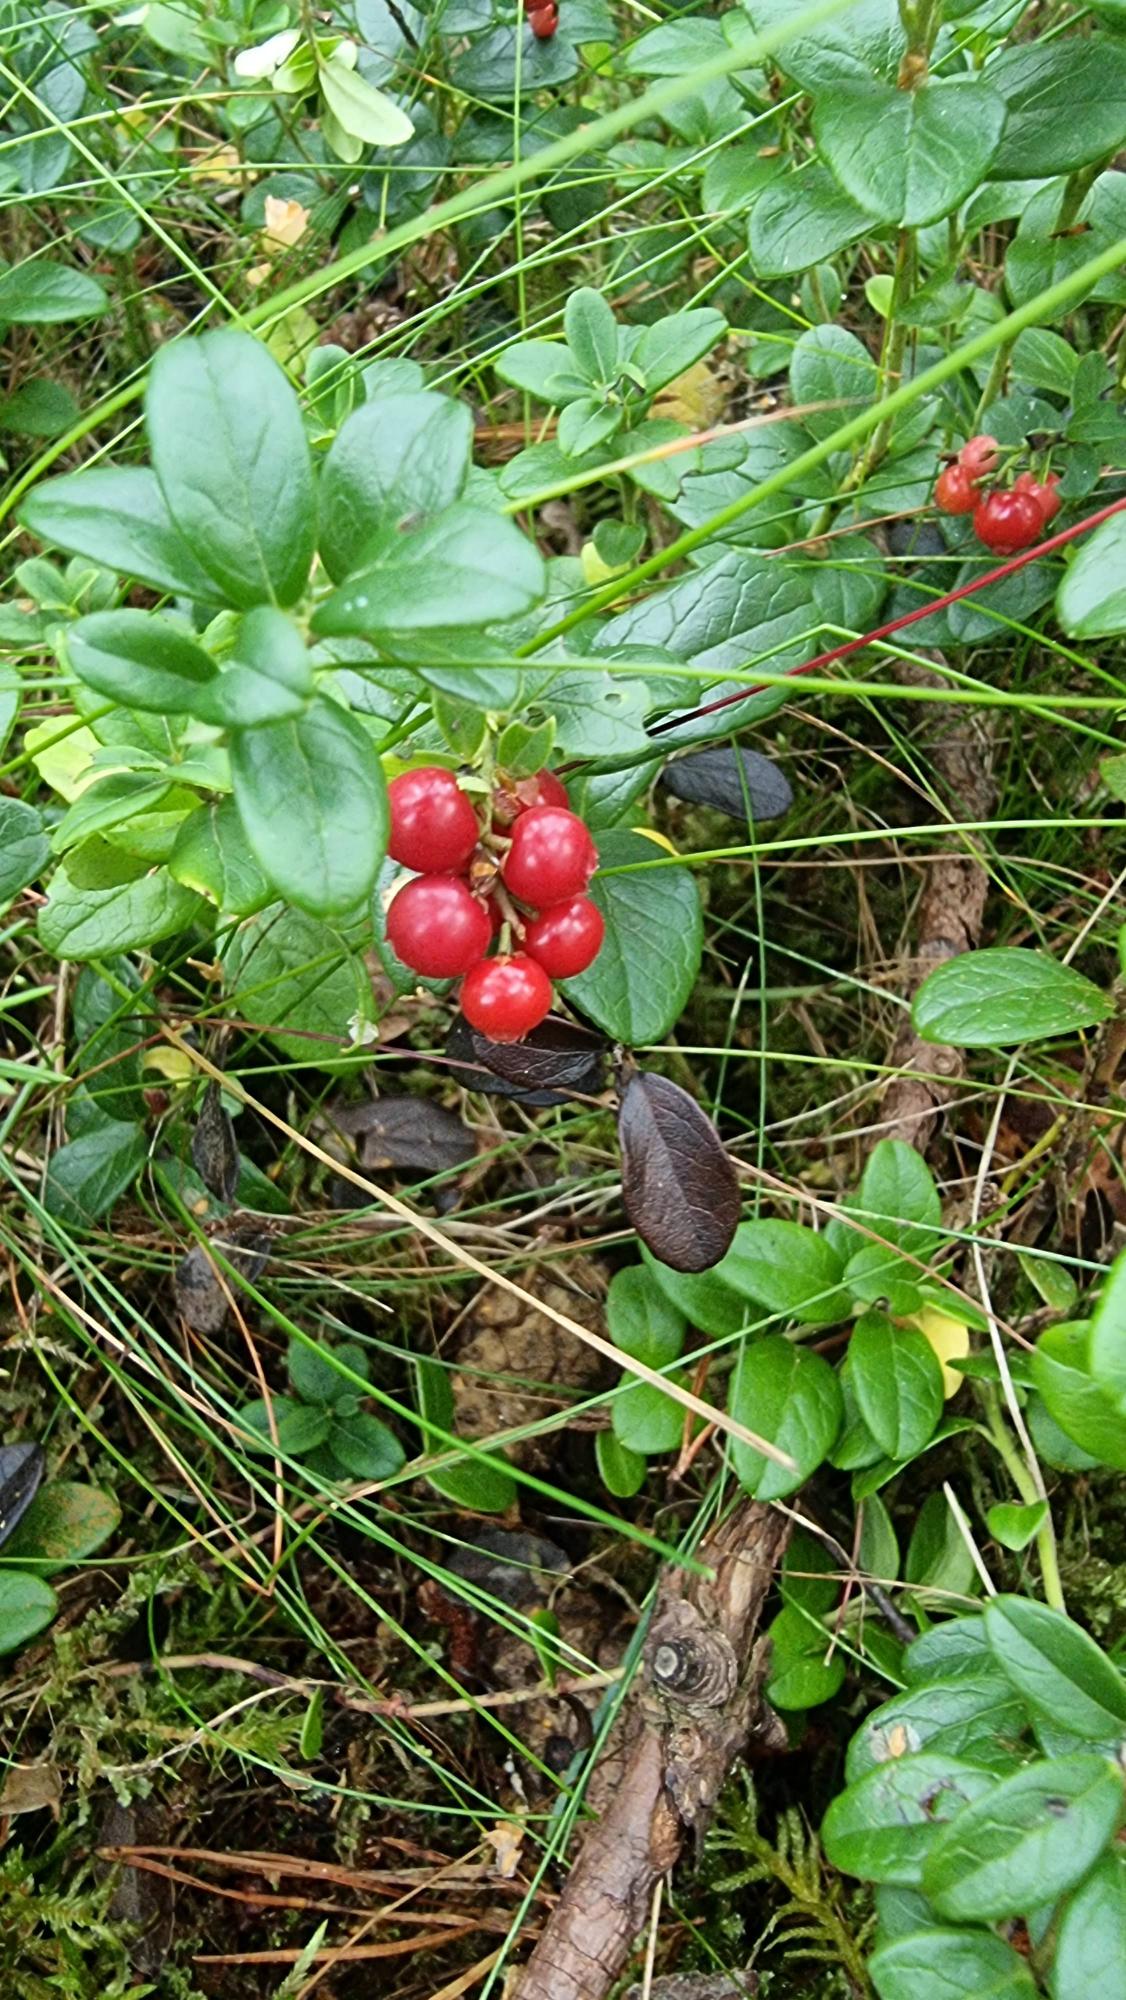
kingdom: Plantae
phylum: Tracheophyta
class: Magnoliopsida
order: Ericales
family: Ericaceae
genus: Vaccinium
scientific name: Vaccinium vitis-idaea
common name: Tyttebær
